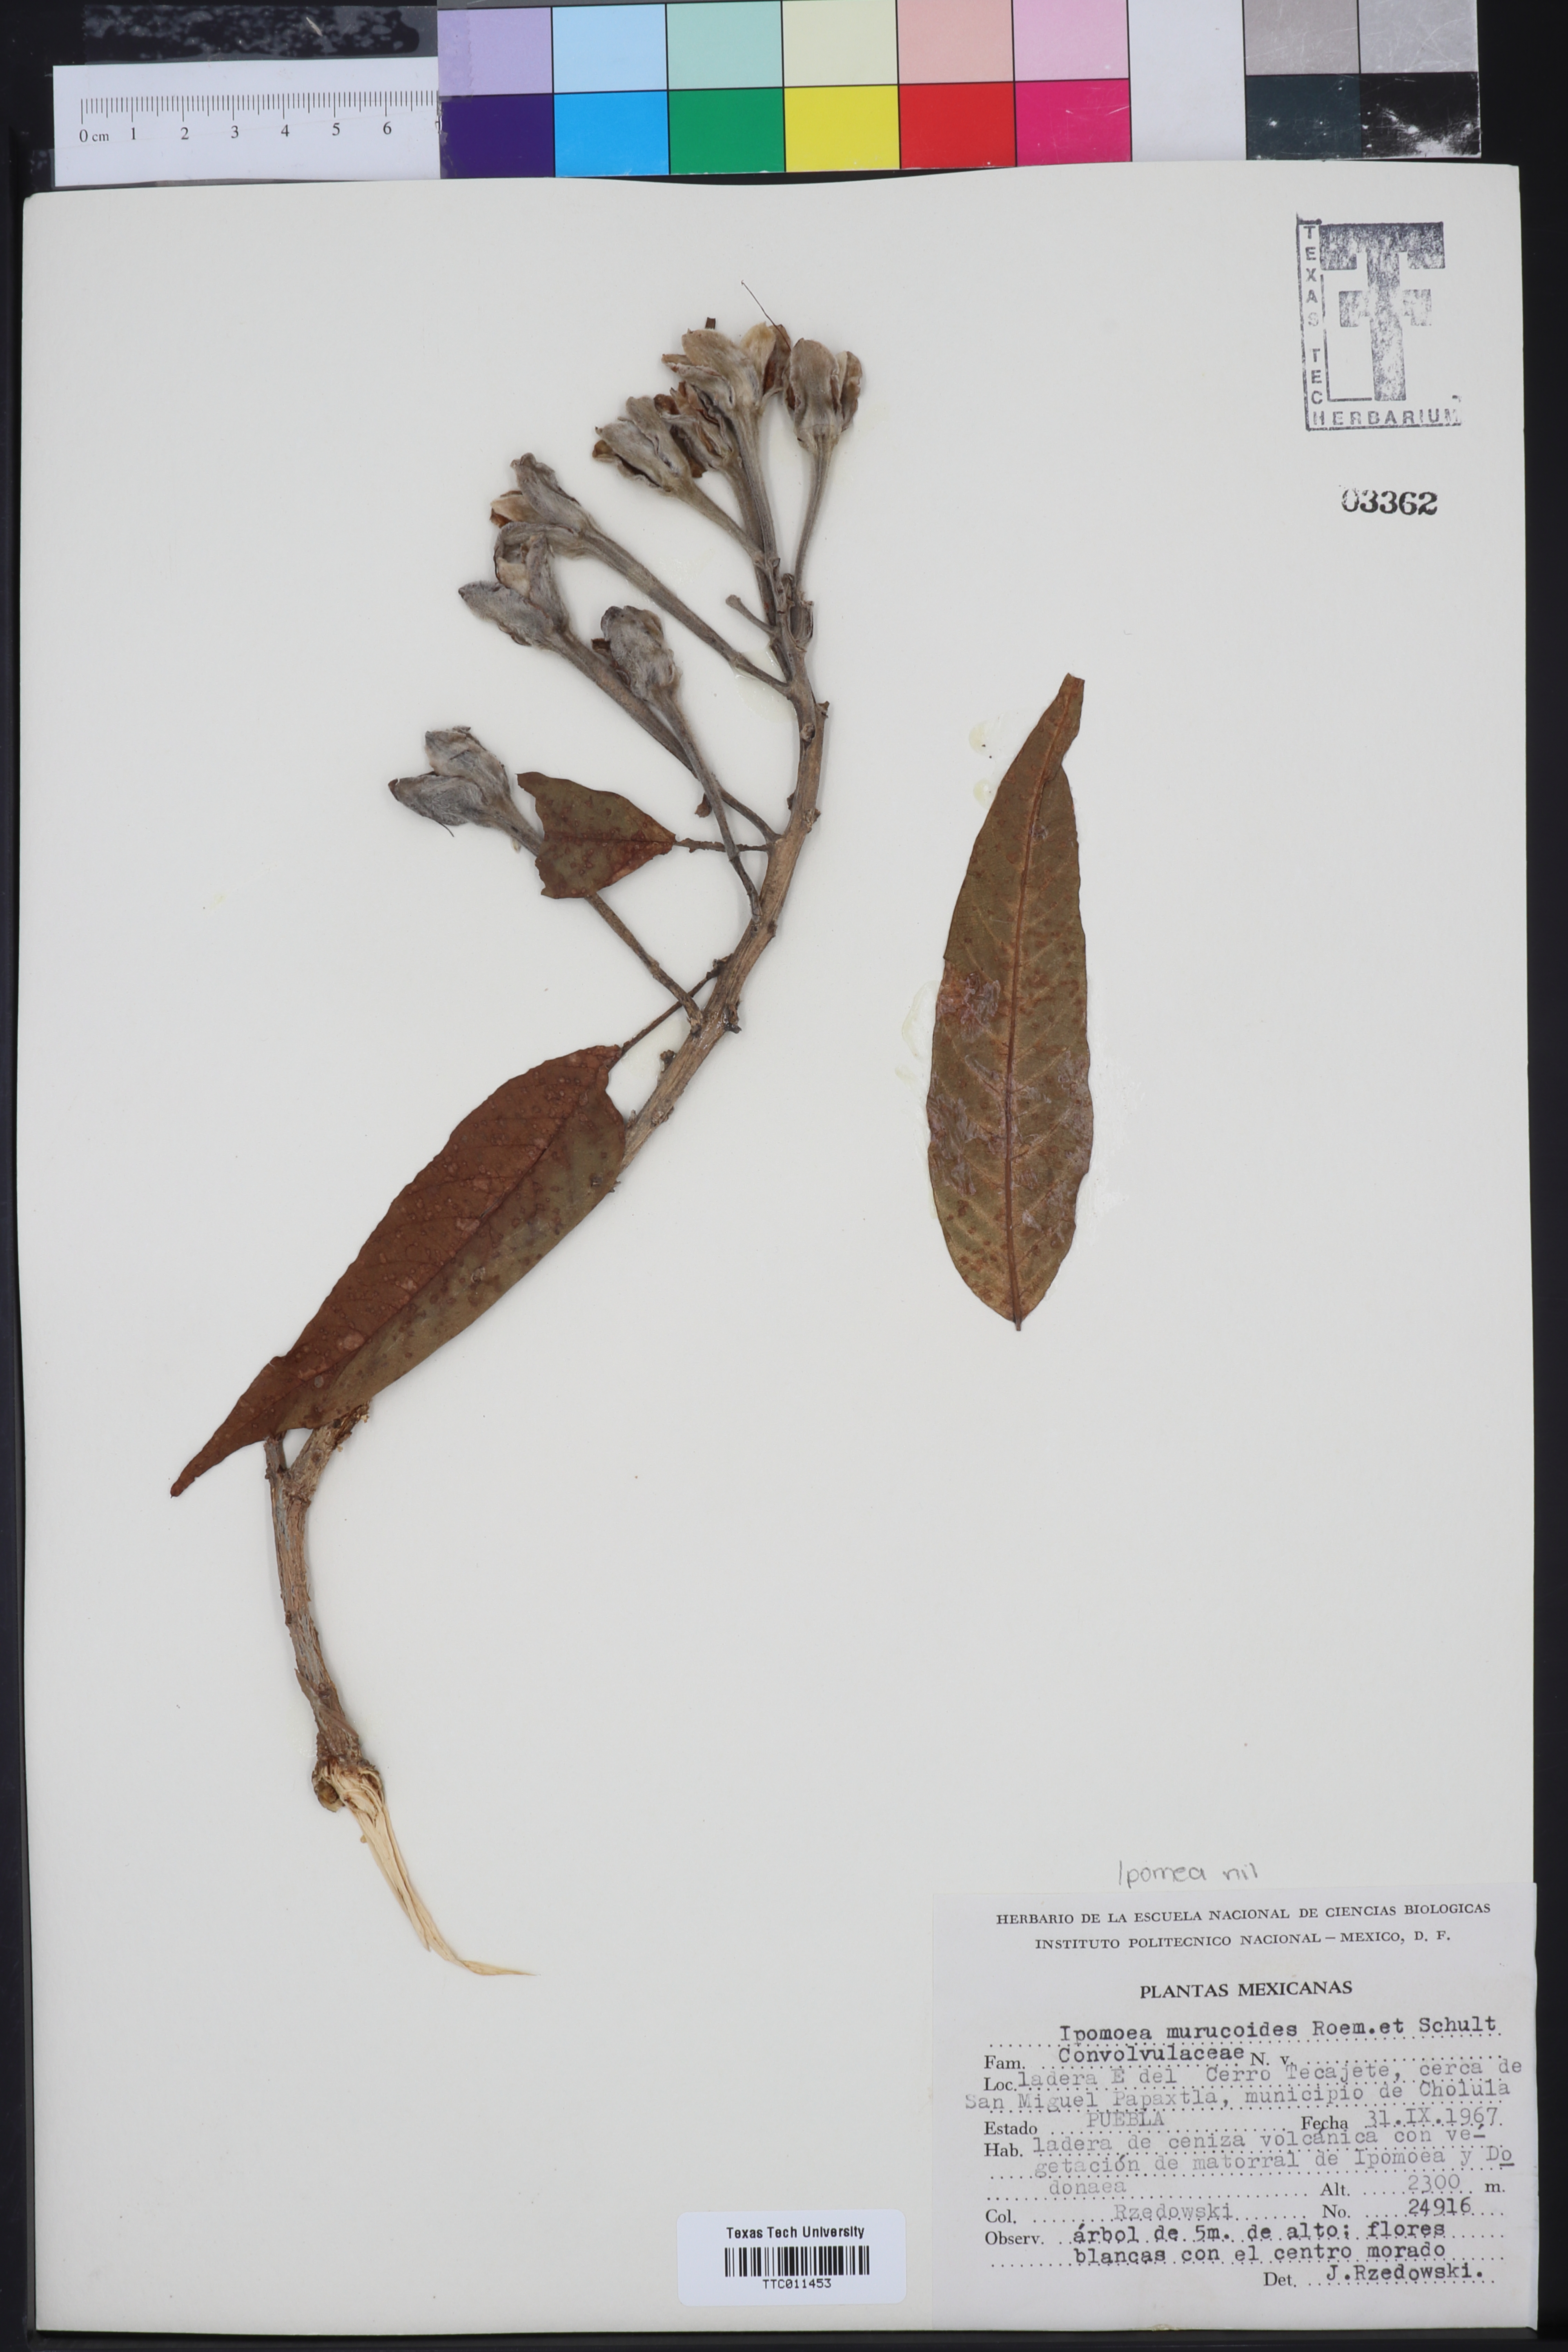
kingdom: Plantae
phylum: Tracheophyta
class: Magnoliopsida
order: Solanales
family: Convolvulaceae
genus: Ipomoea
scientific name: Ipomoea murucoides
